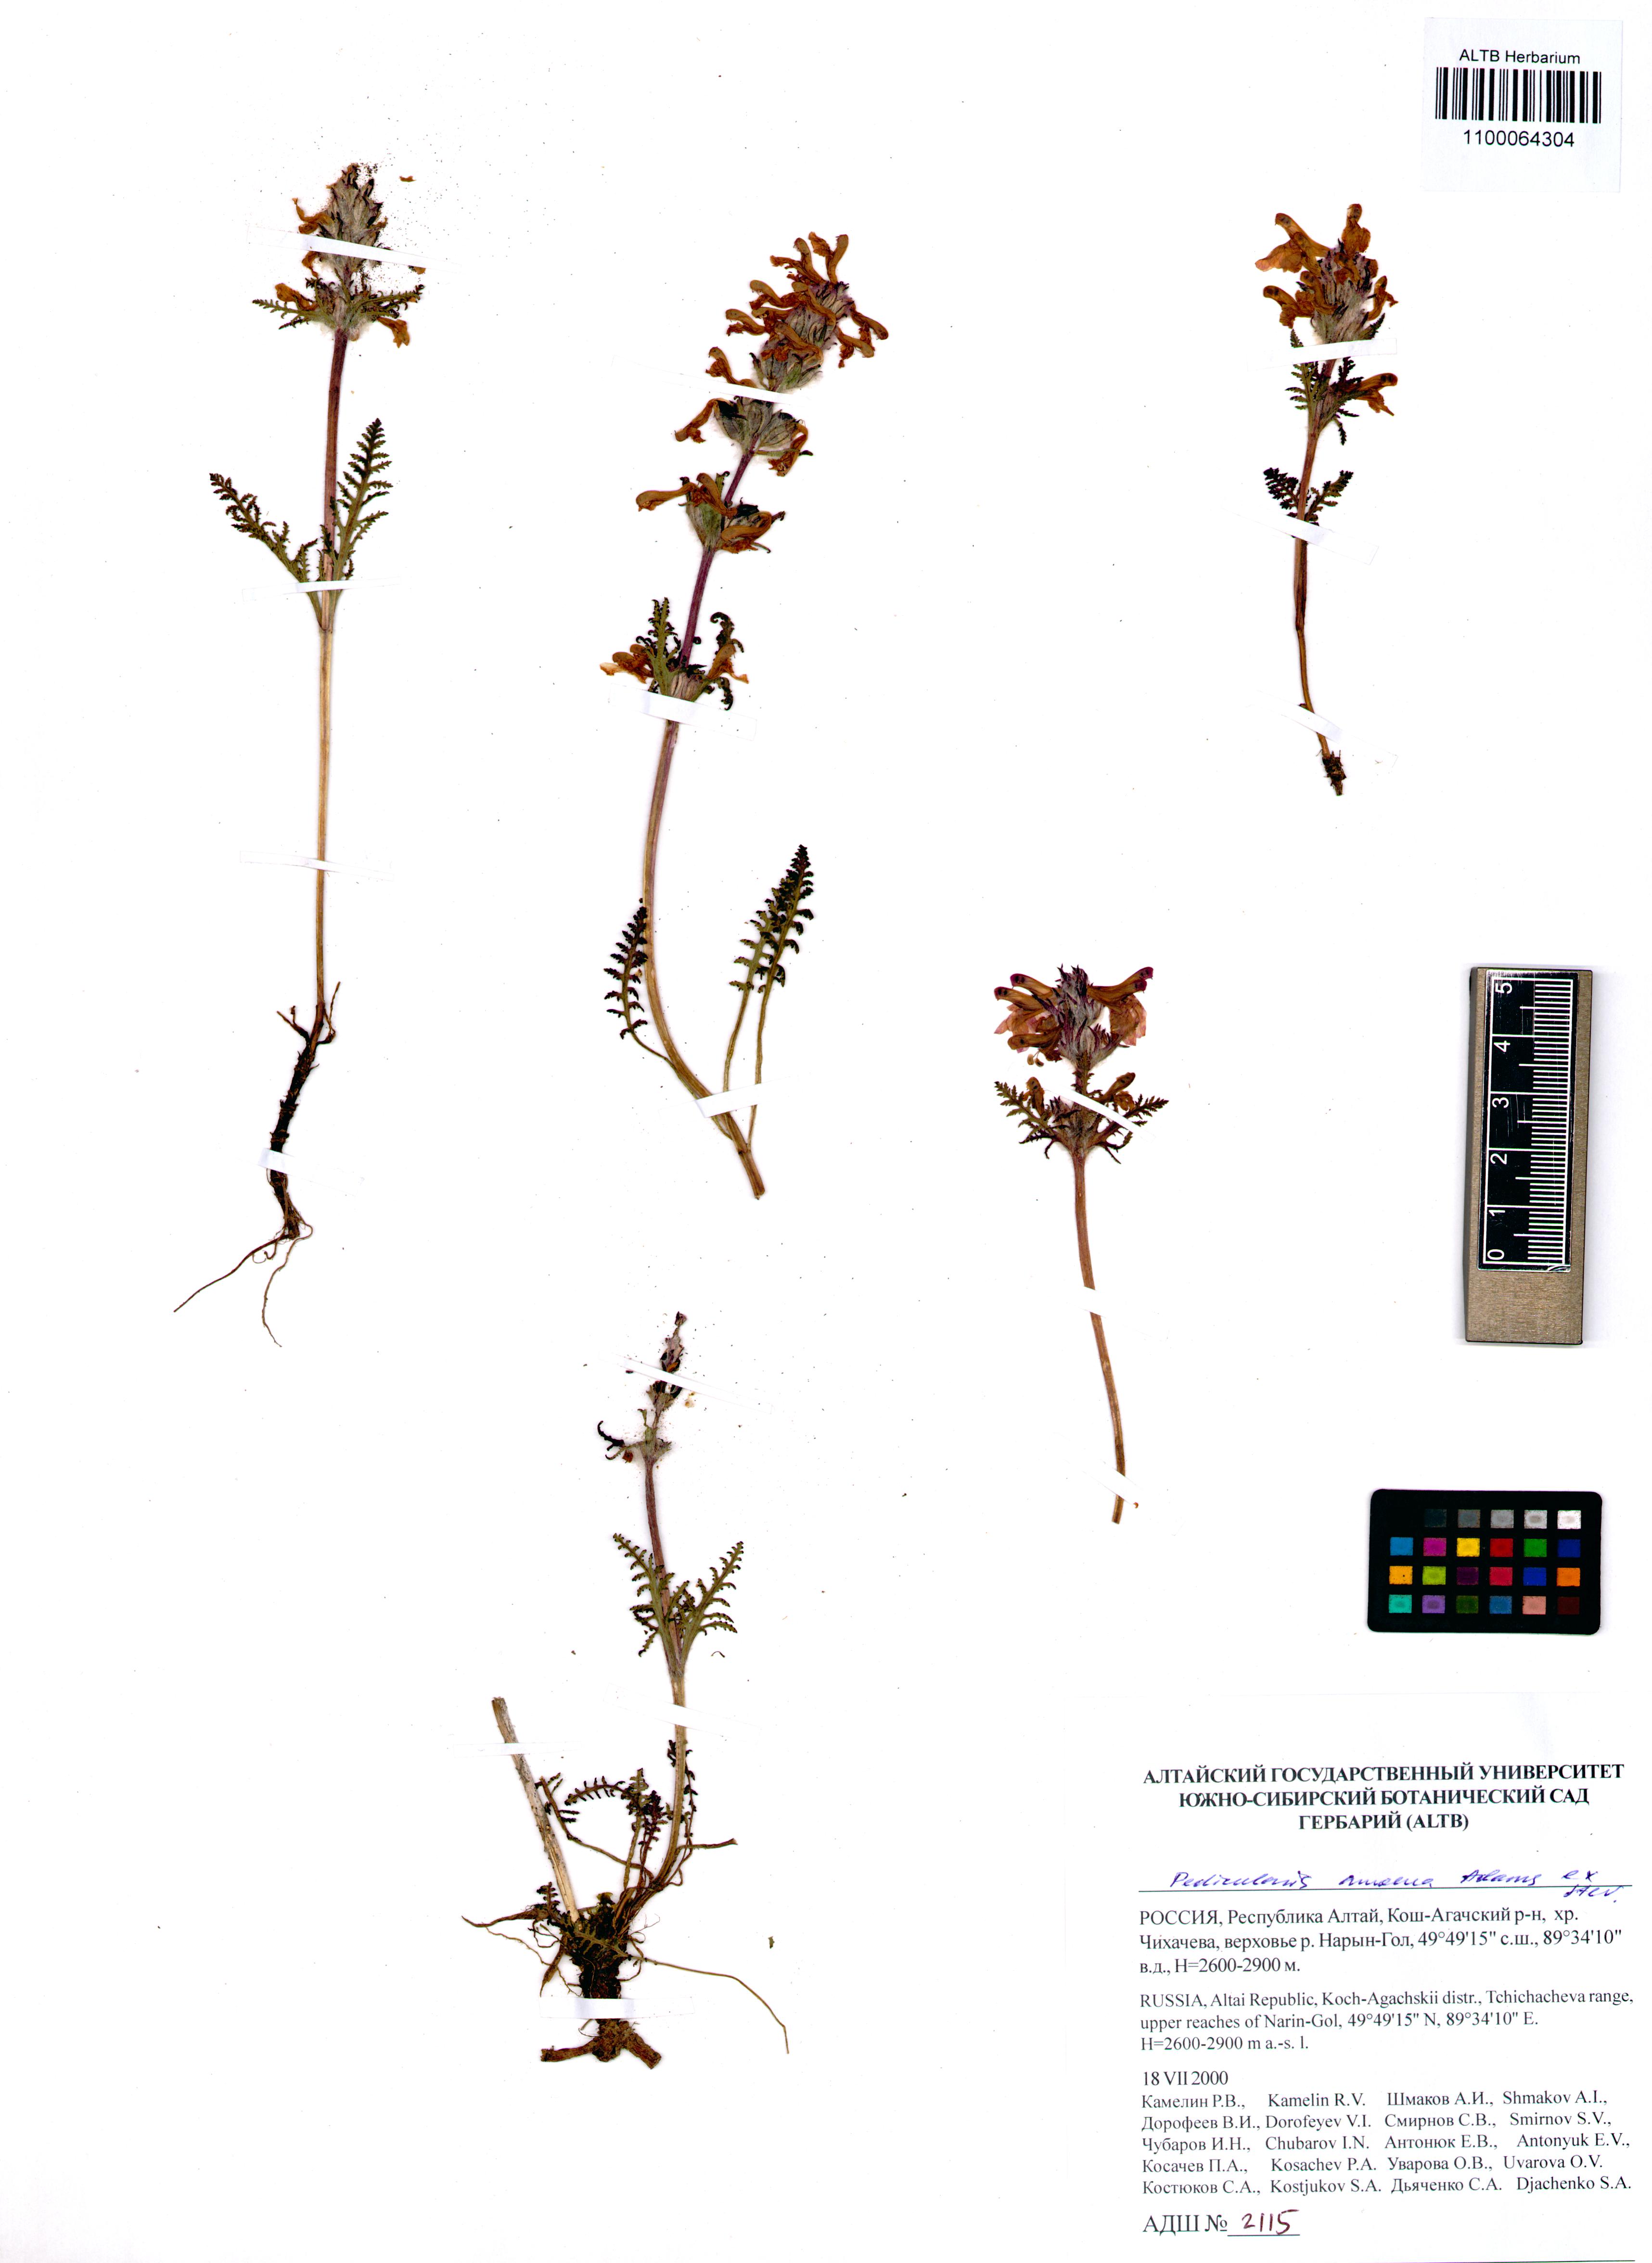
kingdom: Plantae
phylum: Tracheophyta
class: Magnoliopsida
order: Lamiales
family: Orobanchaceae
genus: Pedicularis
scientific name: Pedicularis amoena
